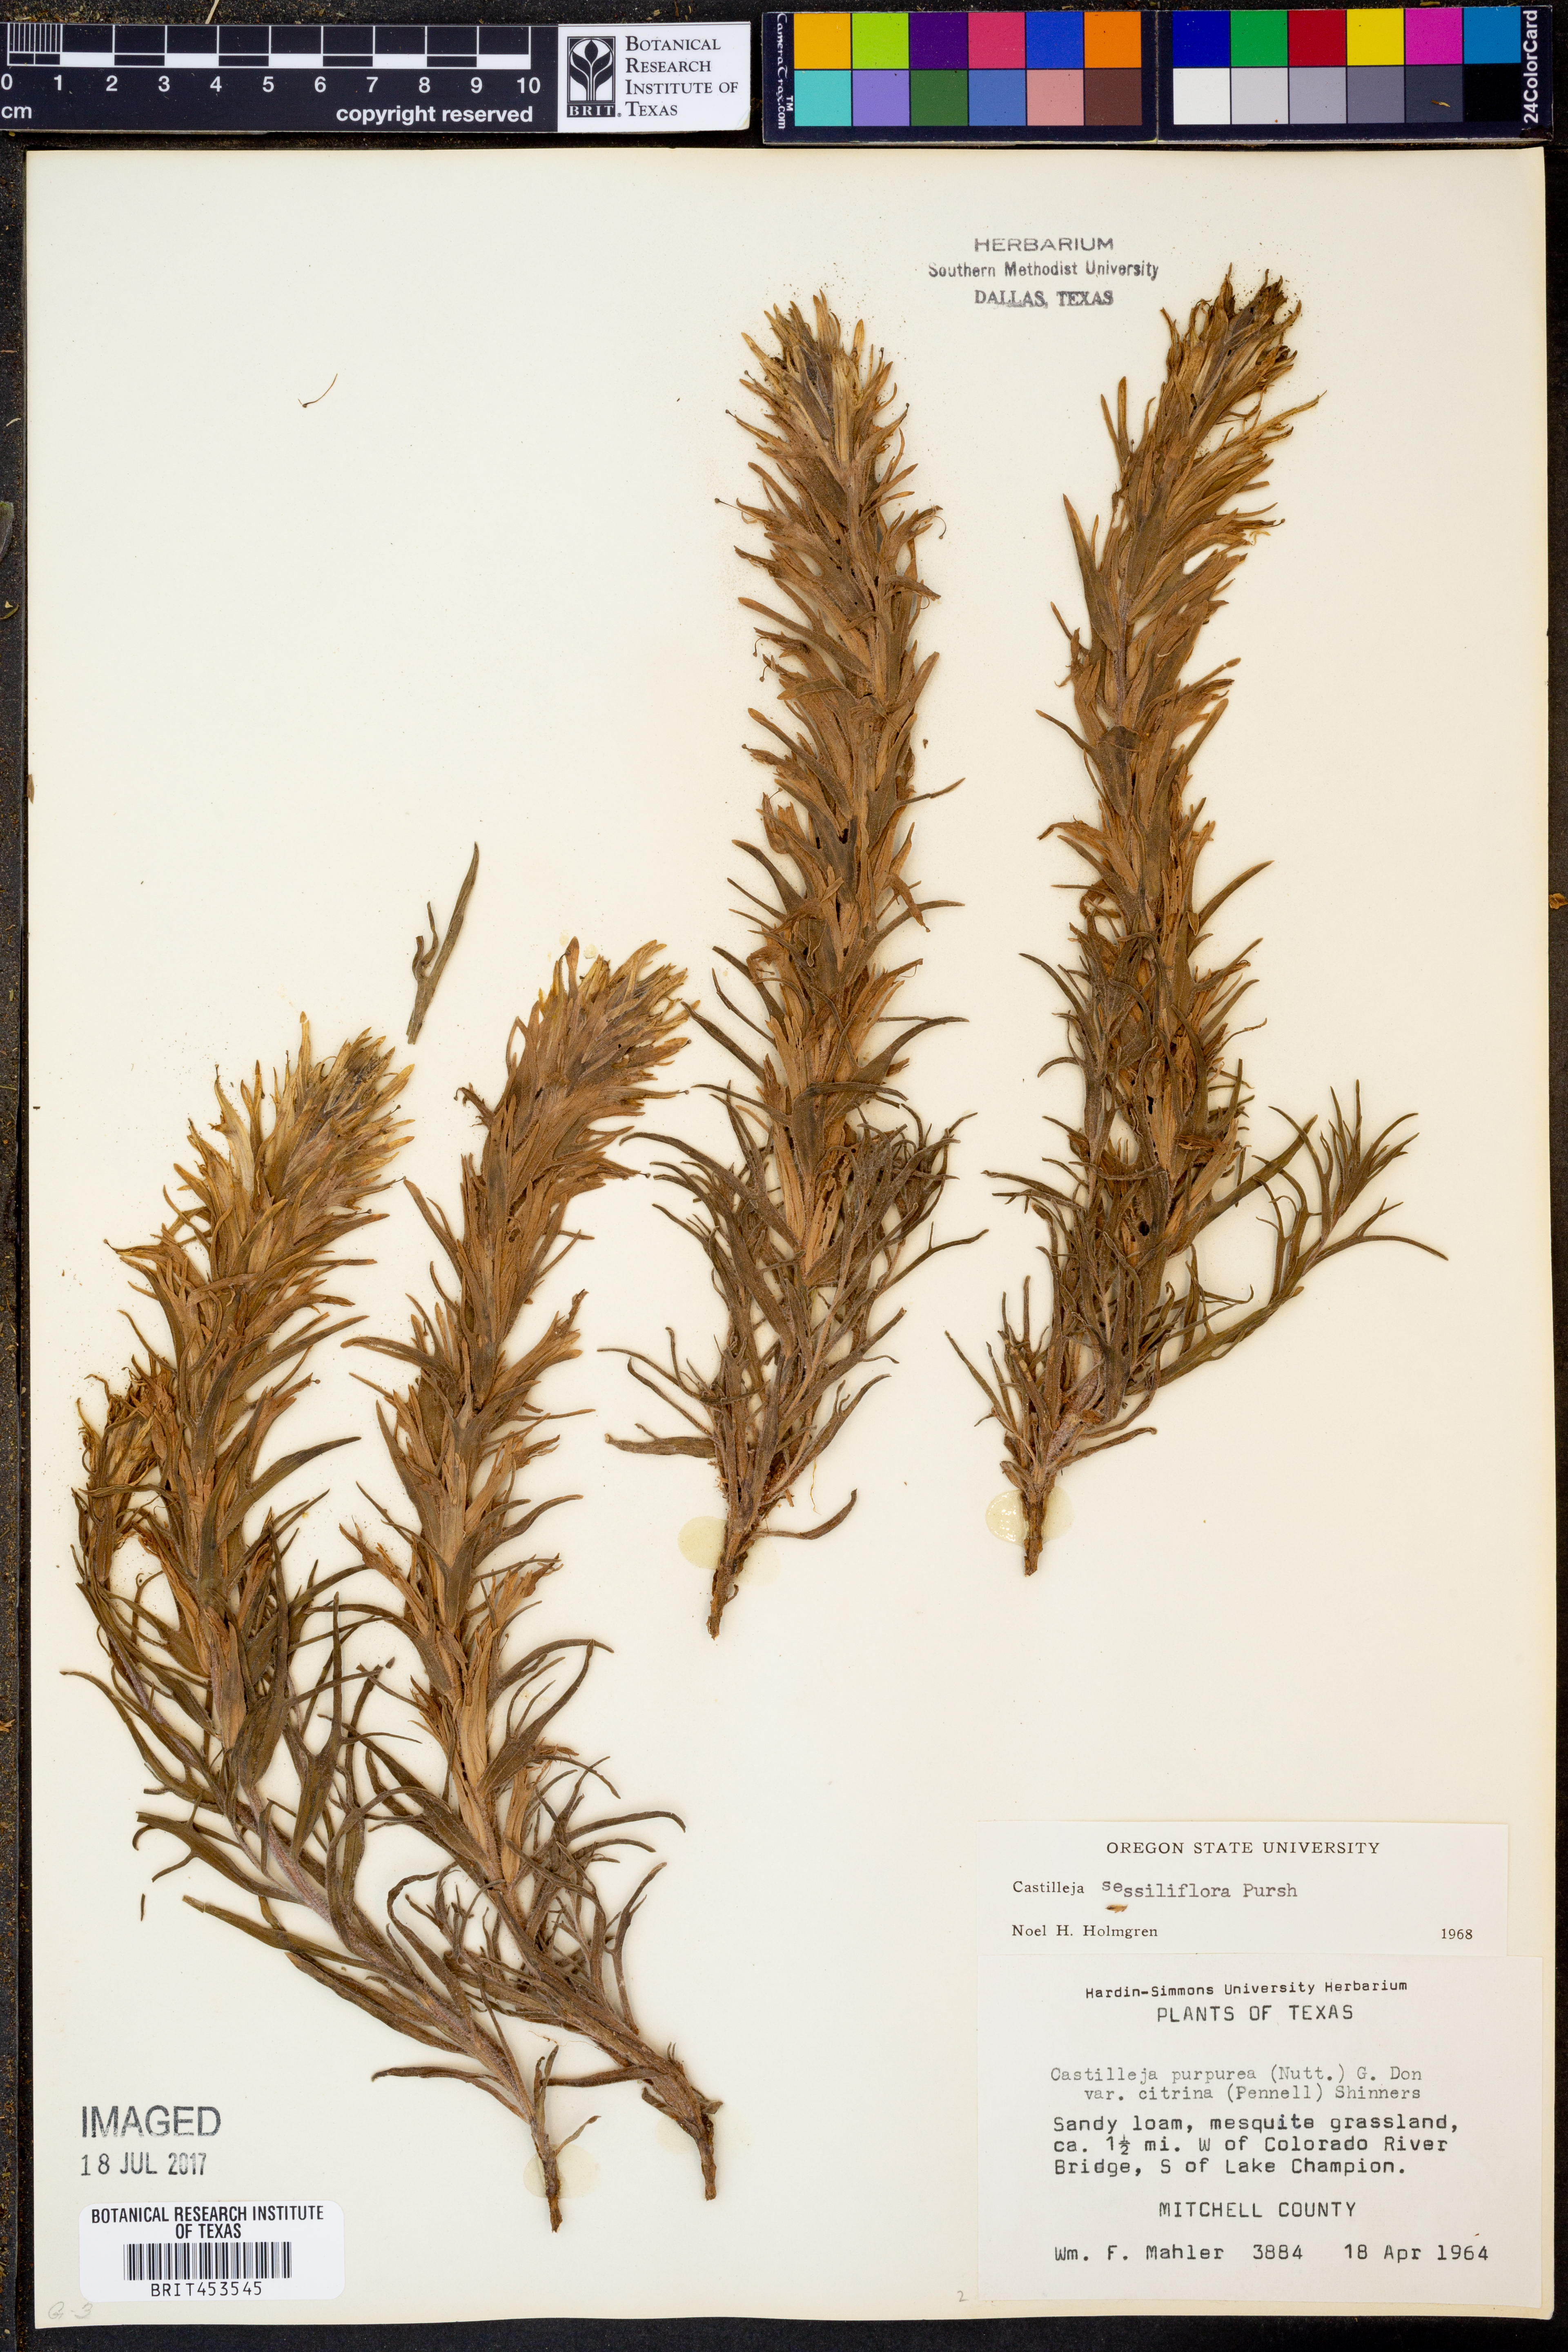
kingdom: Plantae
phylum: Tracheophyta
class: Magnoliopsida
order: Lamiales
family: Orobanchaceae
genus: Castilleja
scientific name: Castilleja purpurea
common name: Plains paintbrush
